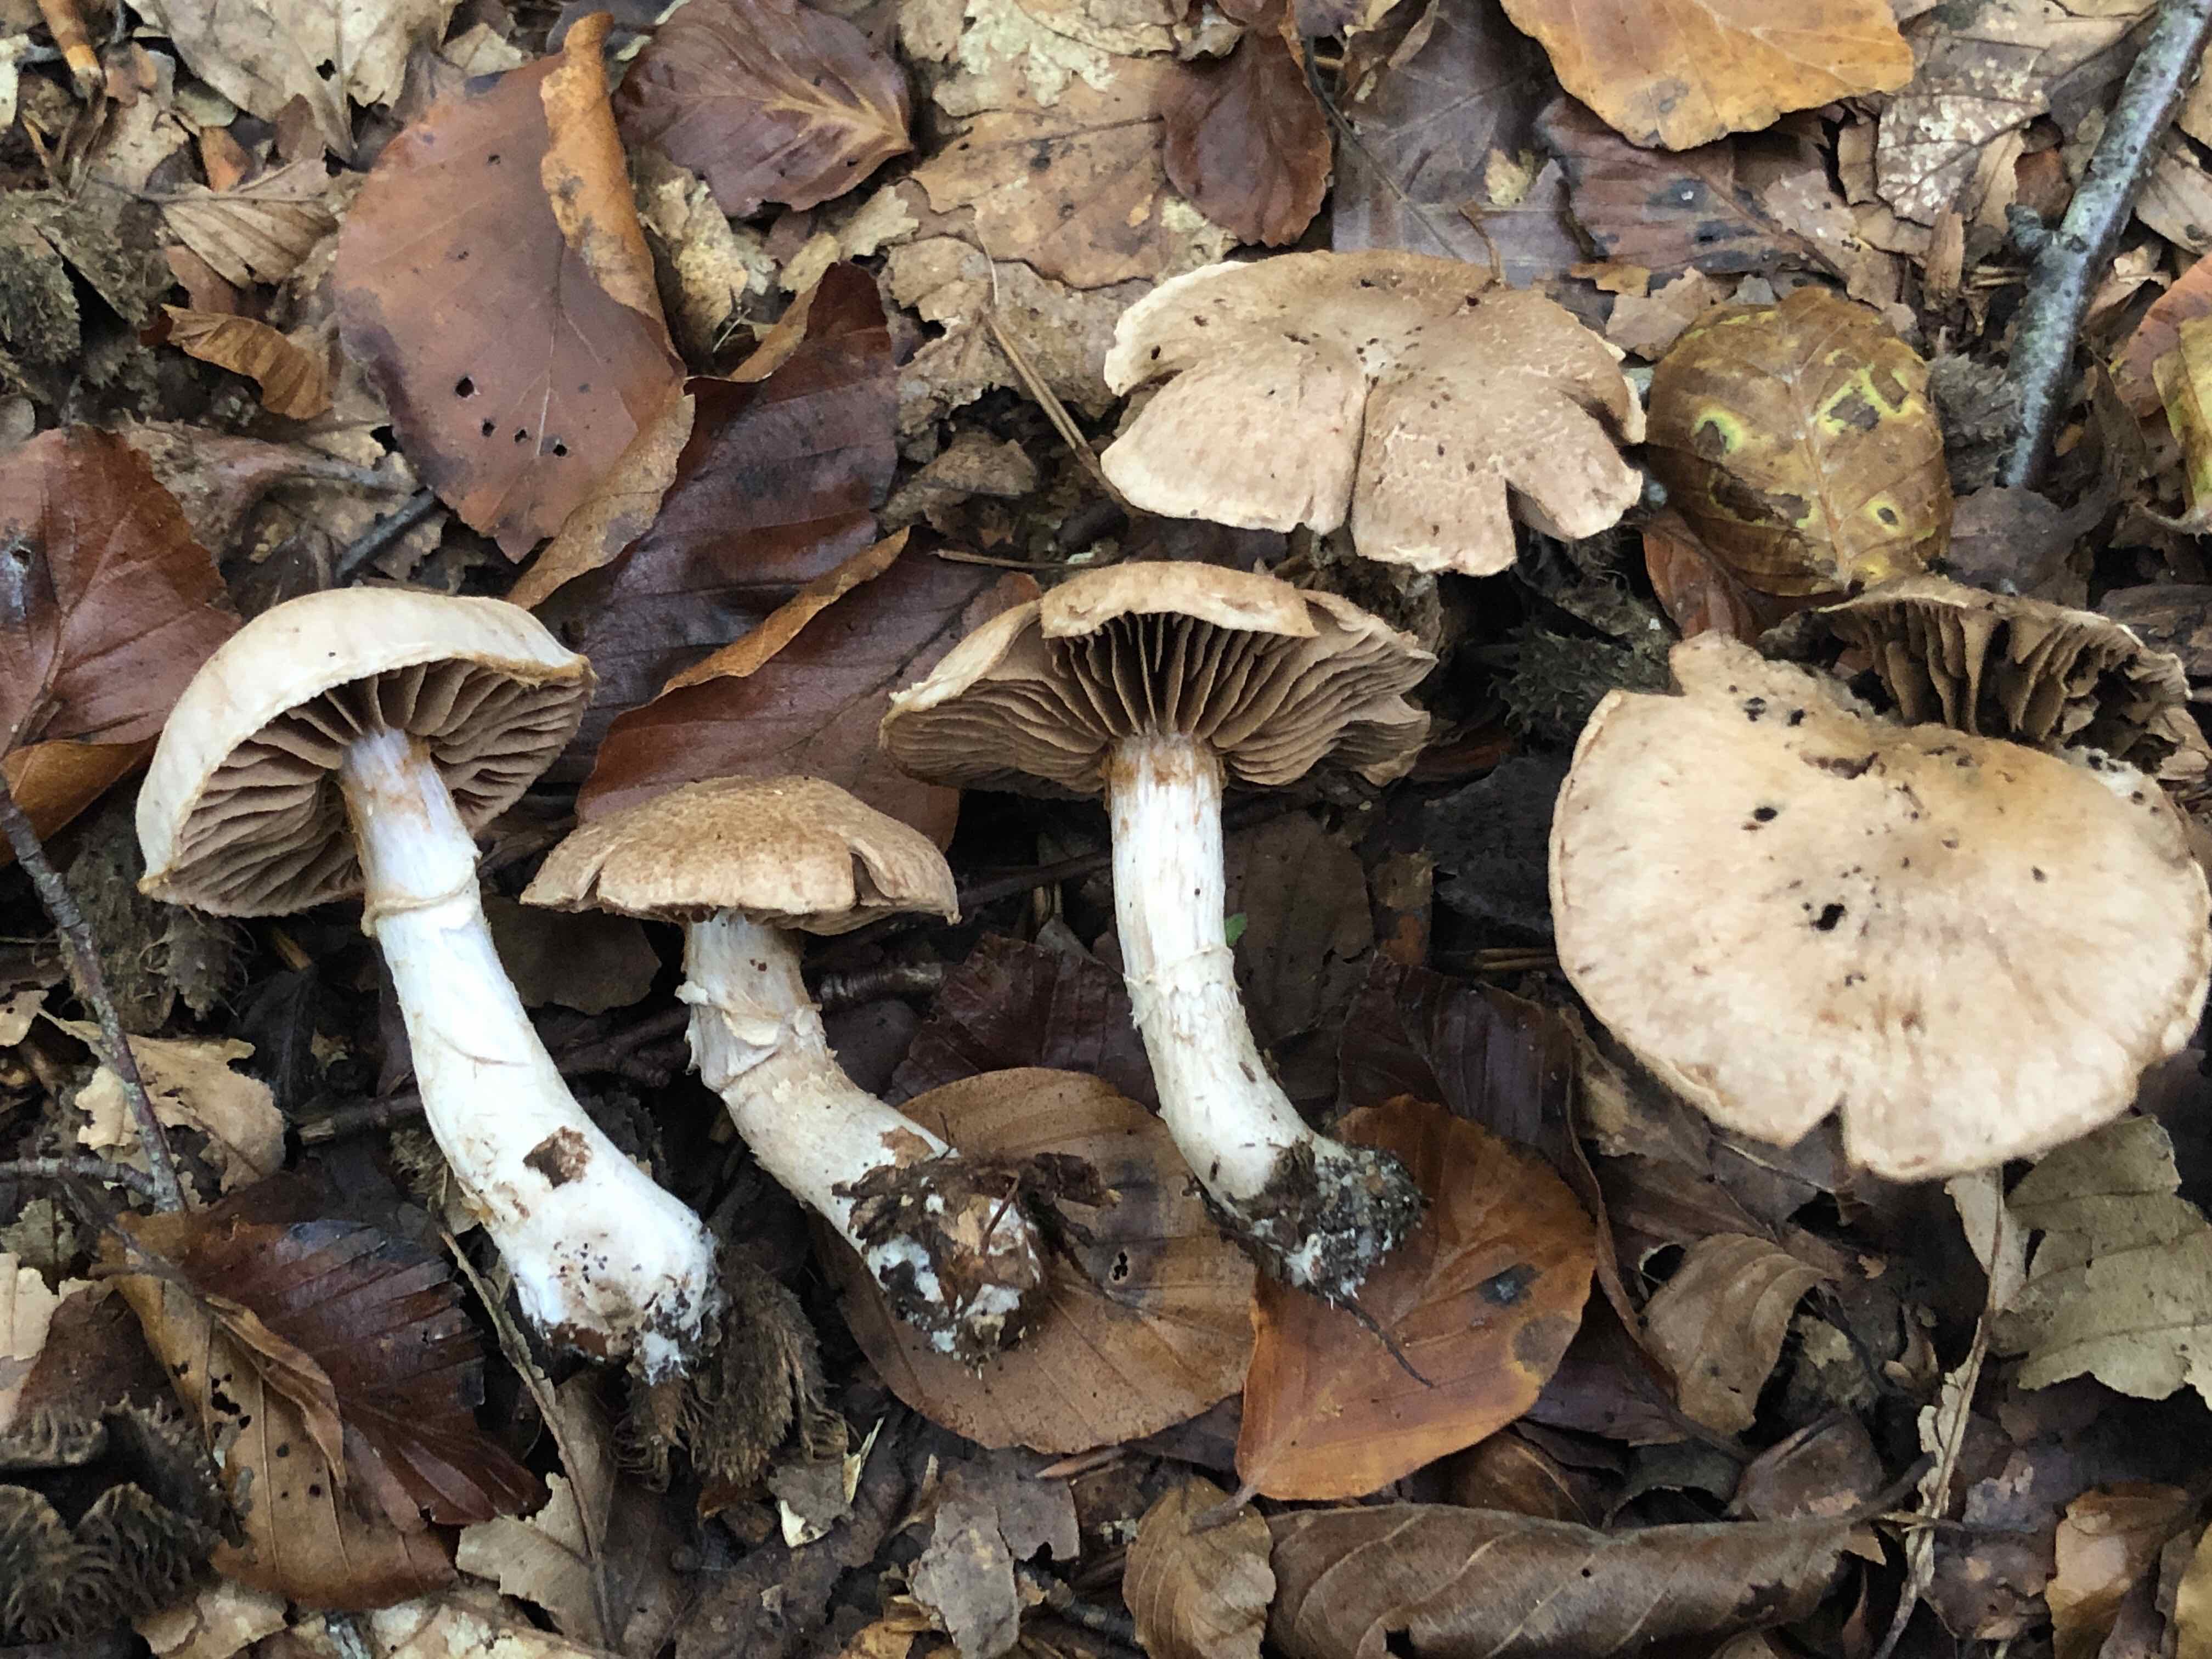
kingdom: Fungi
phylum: Basidiomycota
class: Agaricomycetes
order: Agaricales
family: Cortinariaceae
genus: Cortinarius
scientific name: Cortinarius torvus
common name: champignonagtig slørhat
